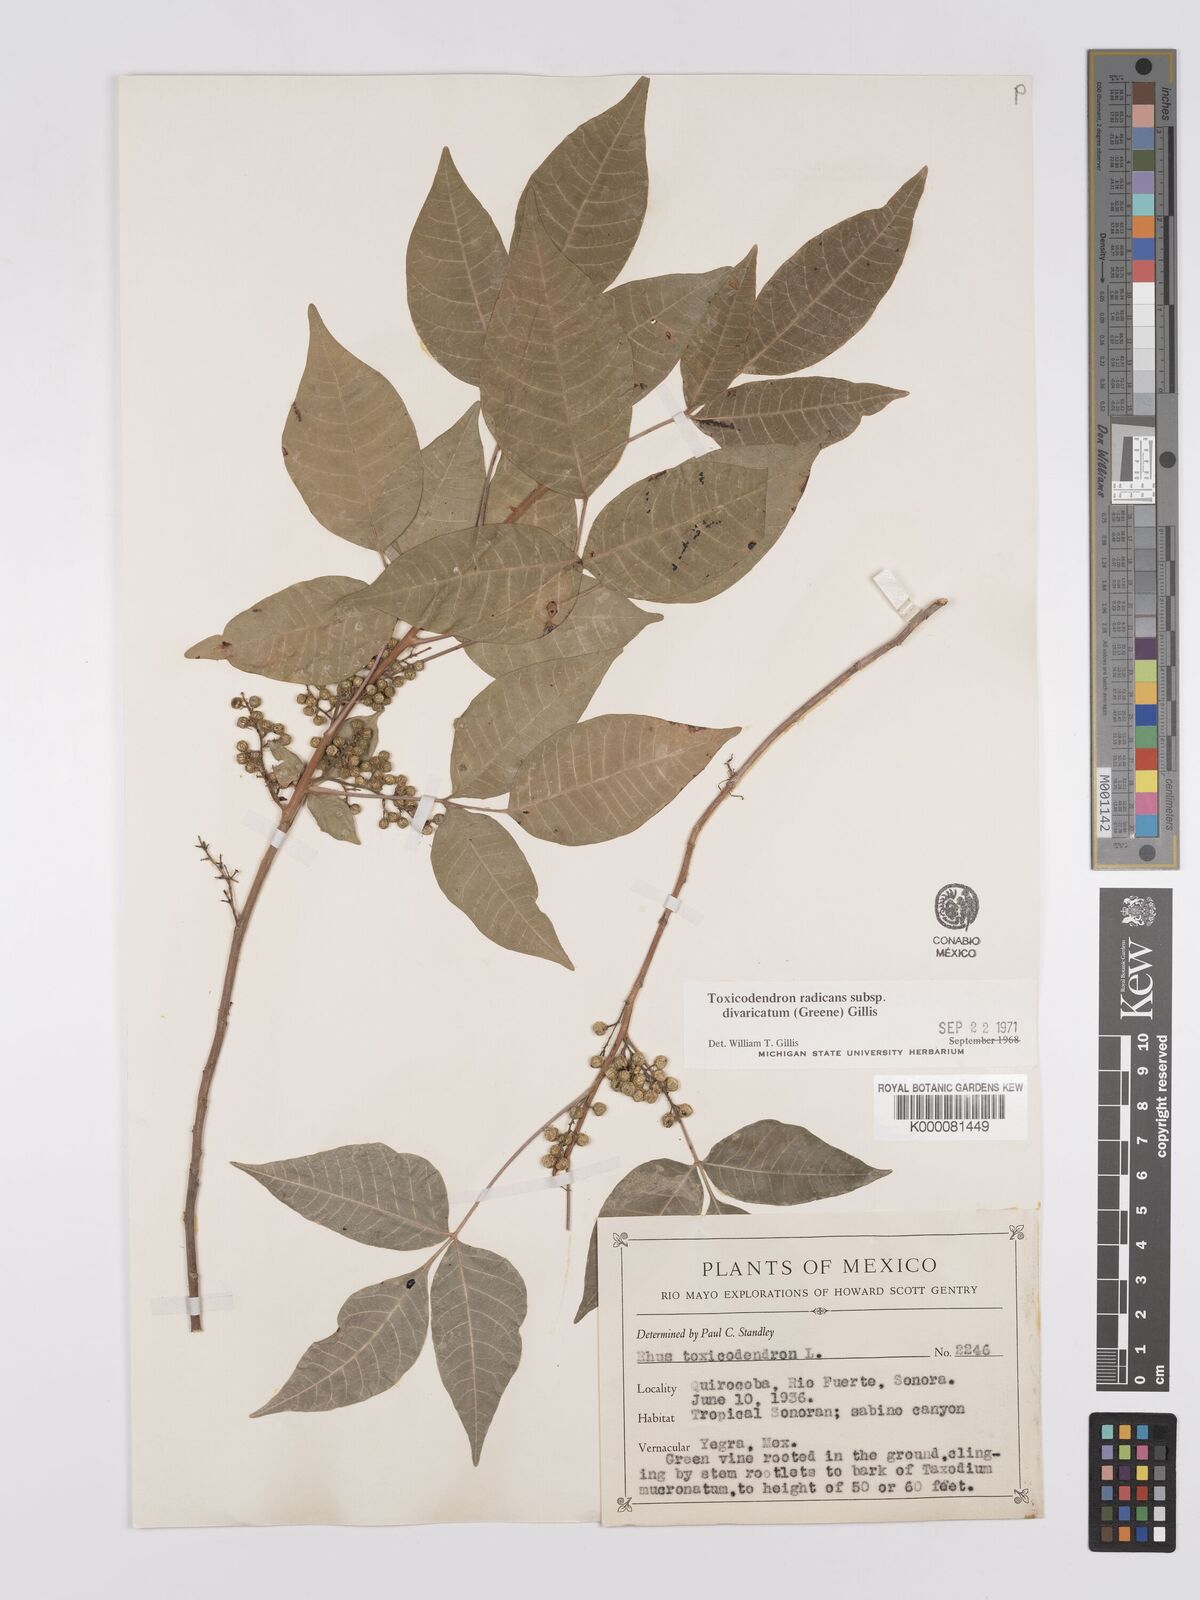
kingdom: Plantae
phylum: Tracheophyta
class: Magnoliopsida
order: Sapindales
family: Anacardiaceae
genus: Toxicodendron
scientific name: Toxicodendron radicans
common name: Poison ivy
